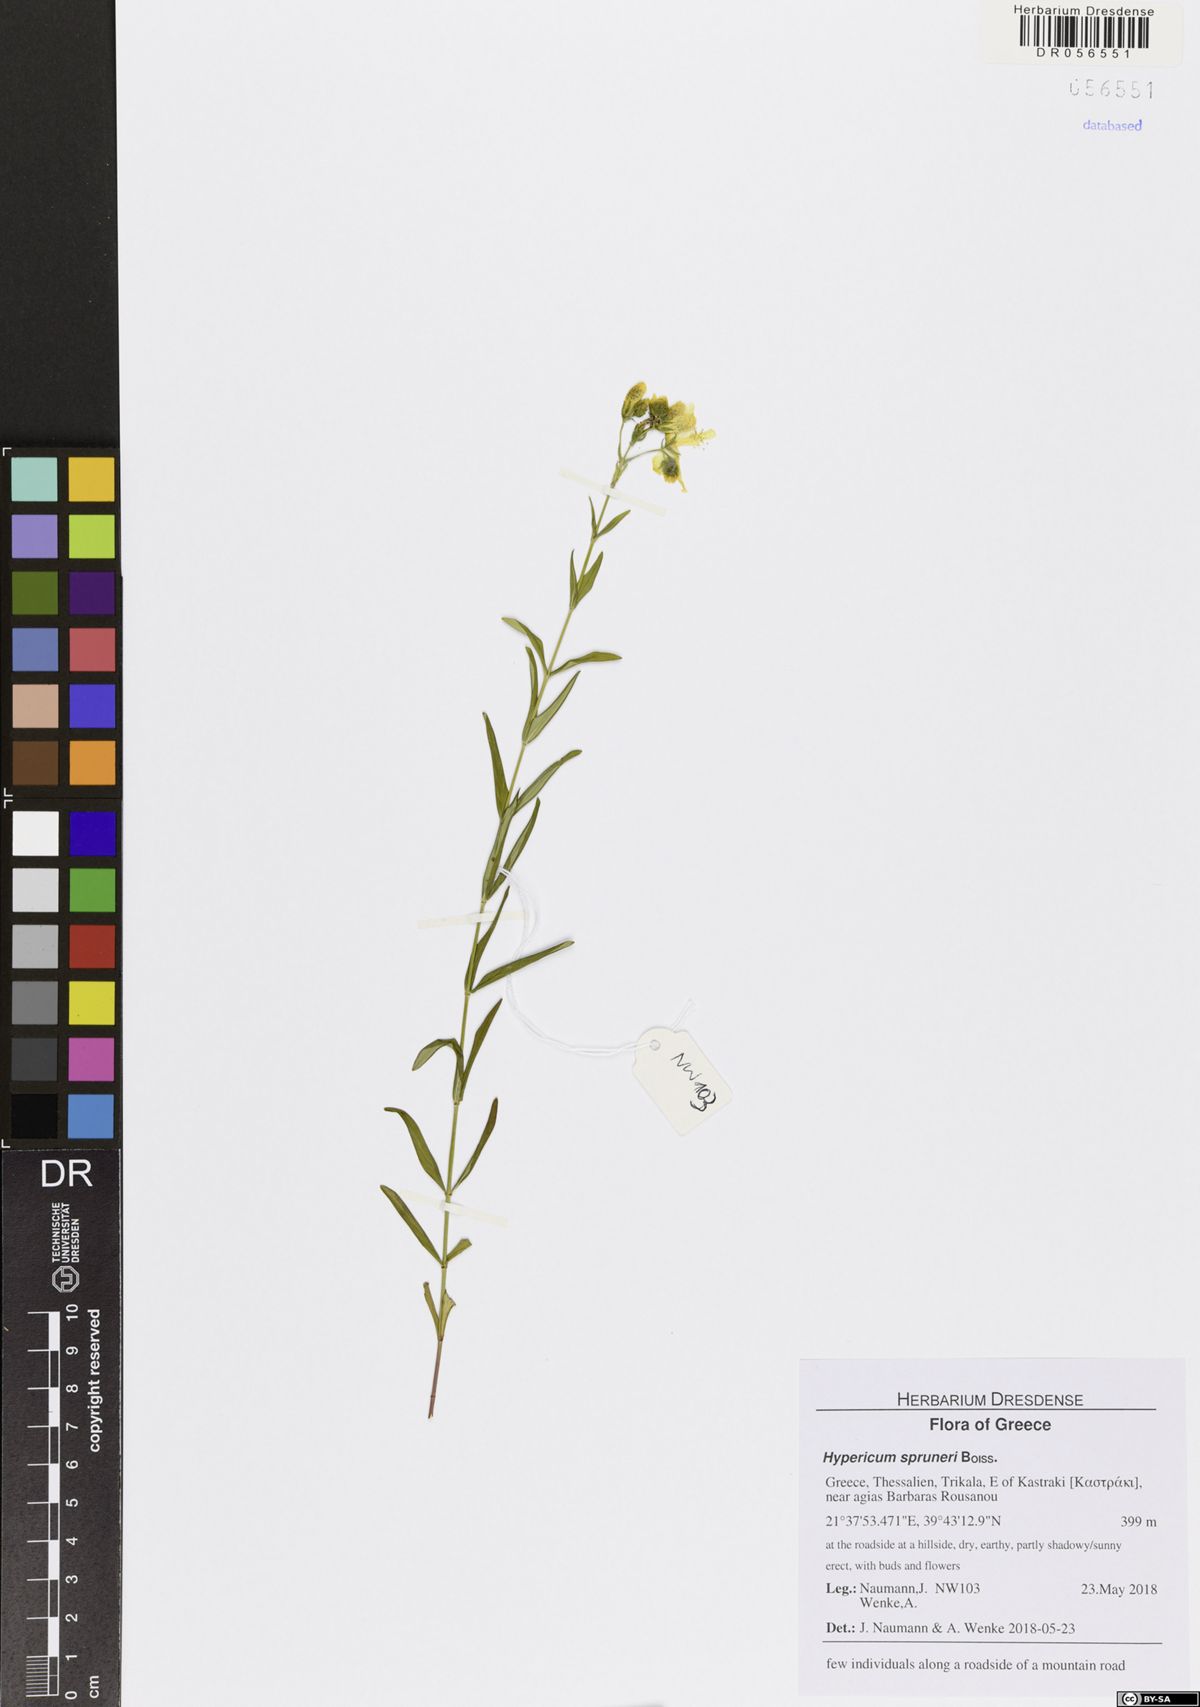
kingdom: Plantae
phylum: Tracheophyta
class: Magnoliopsida
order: Malpighiales
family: Hypericaceae
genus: Hypericum
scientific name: Hypericum spruneri
